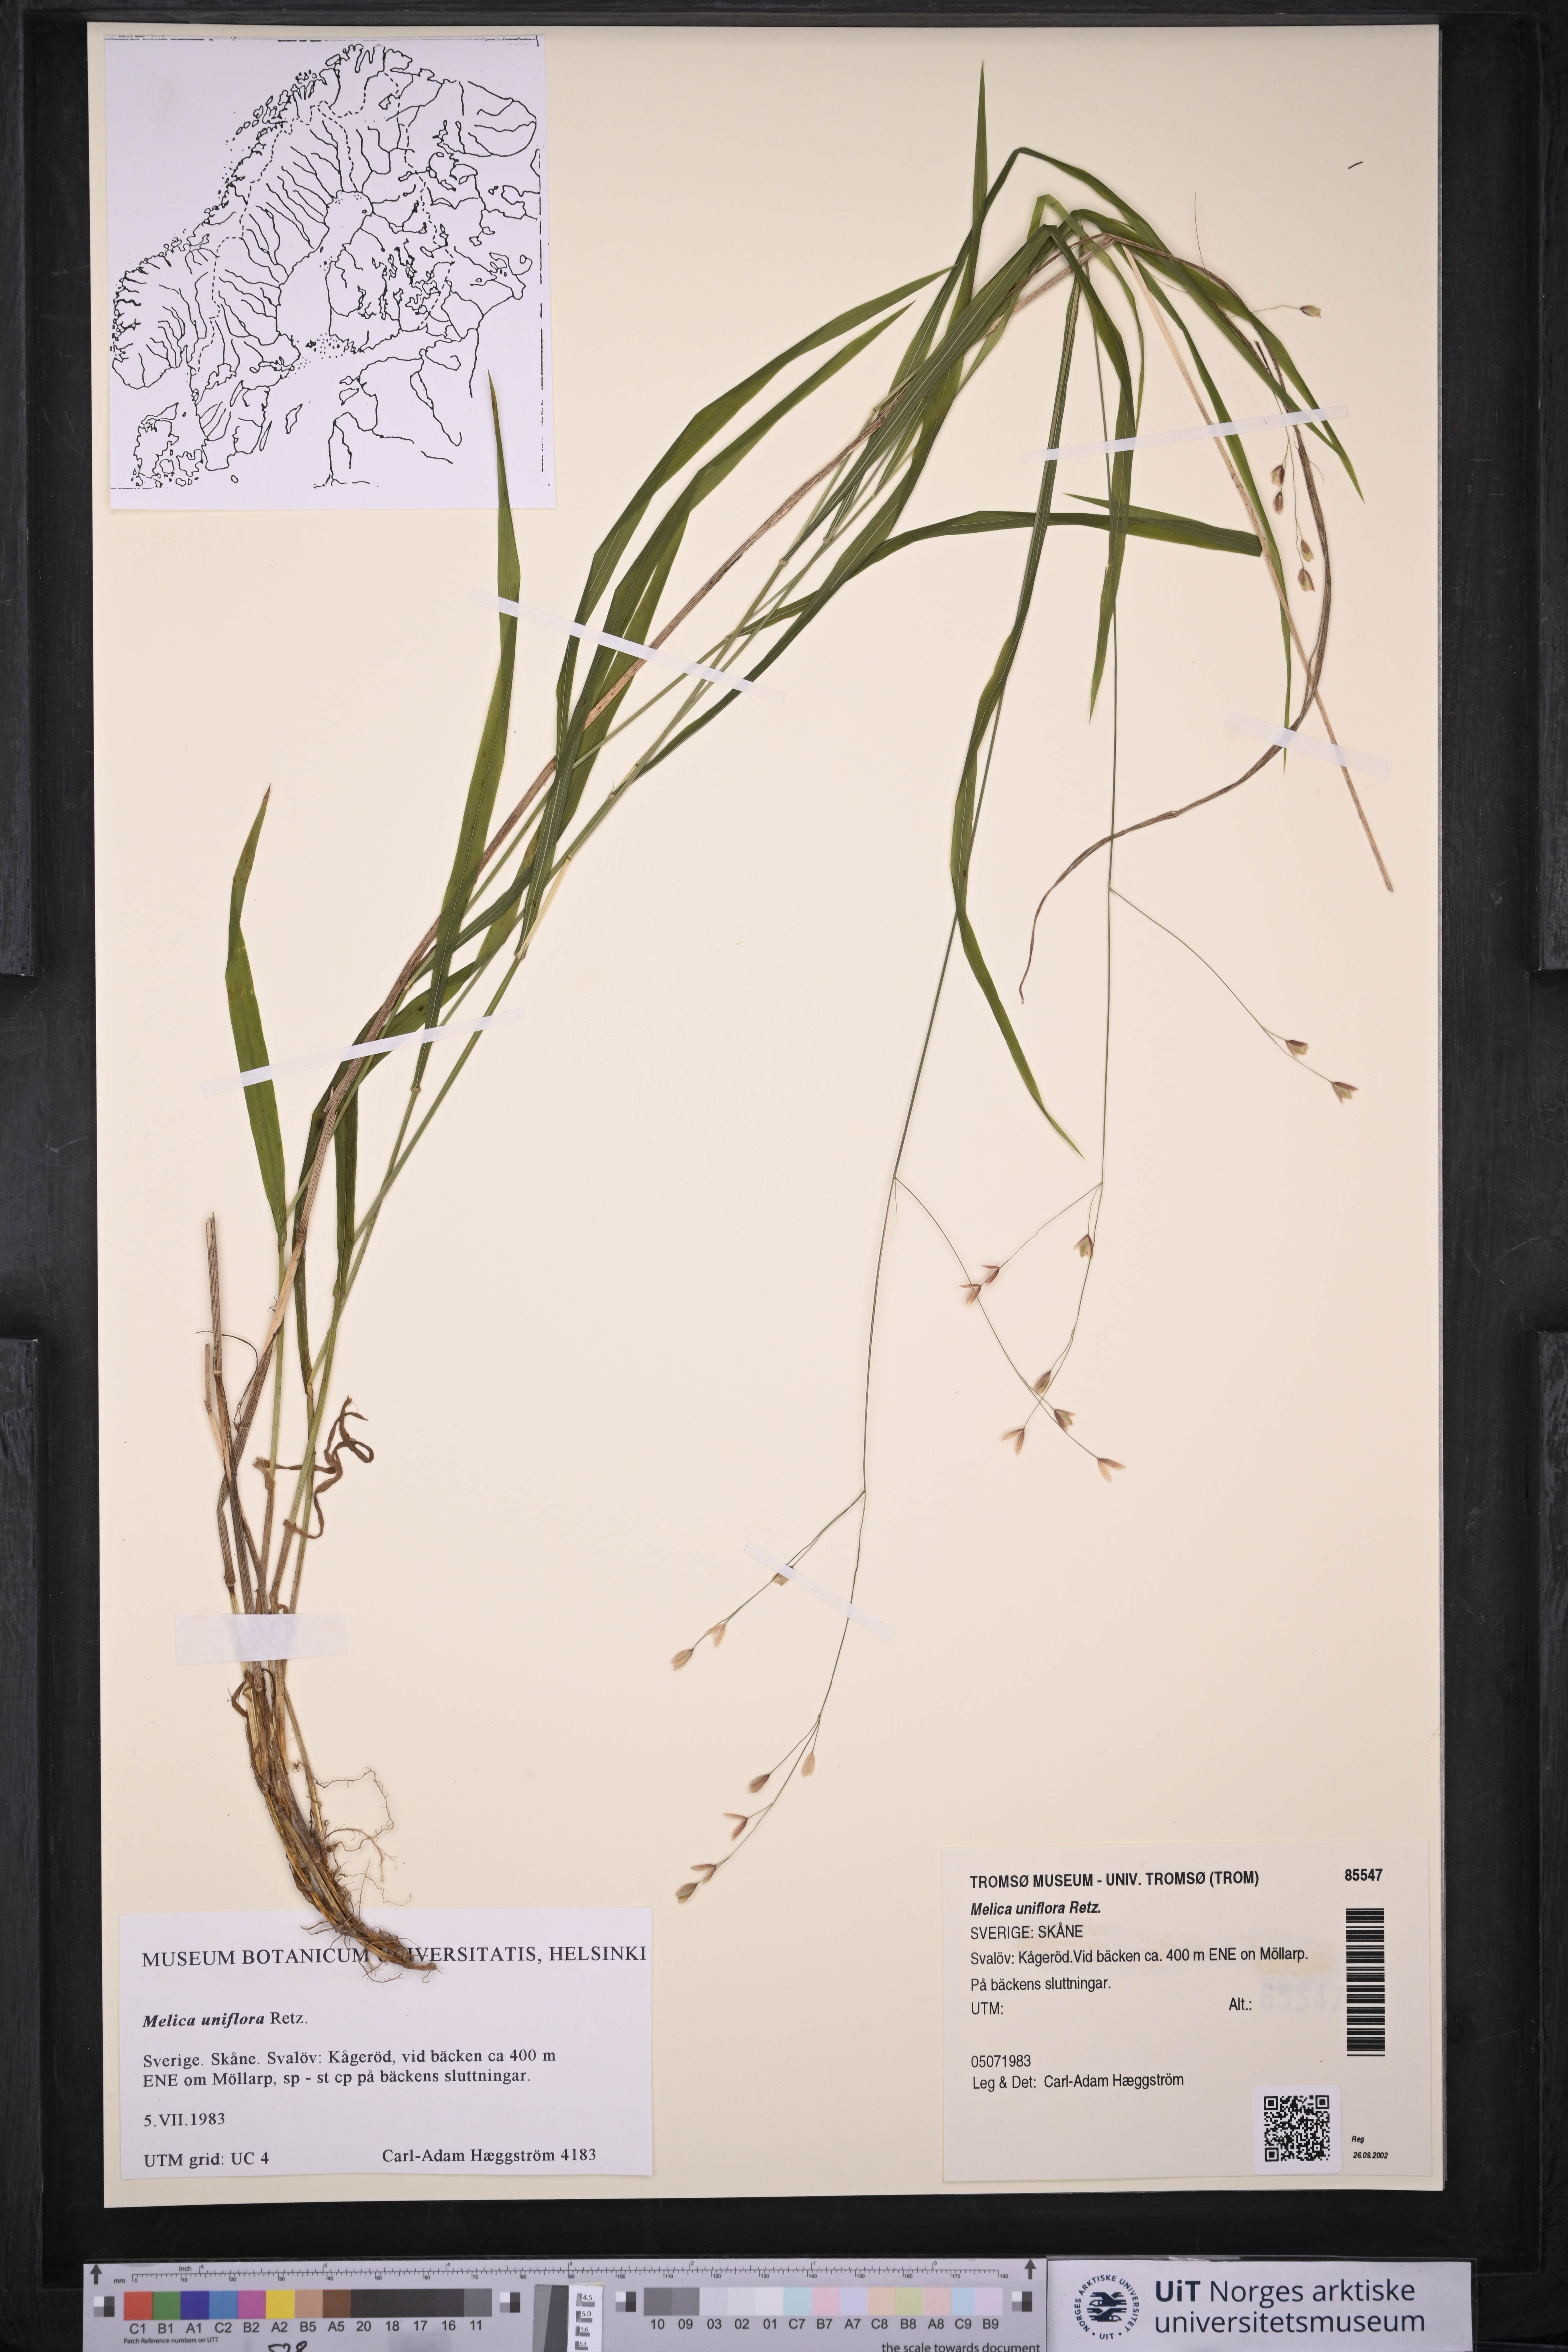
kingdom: Plantae
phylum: Tracheophyta
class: Liliopsida
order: Poales
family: Poaceae
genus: Melica
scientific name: Melica uniflora
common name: Wood melick
